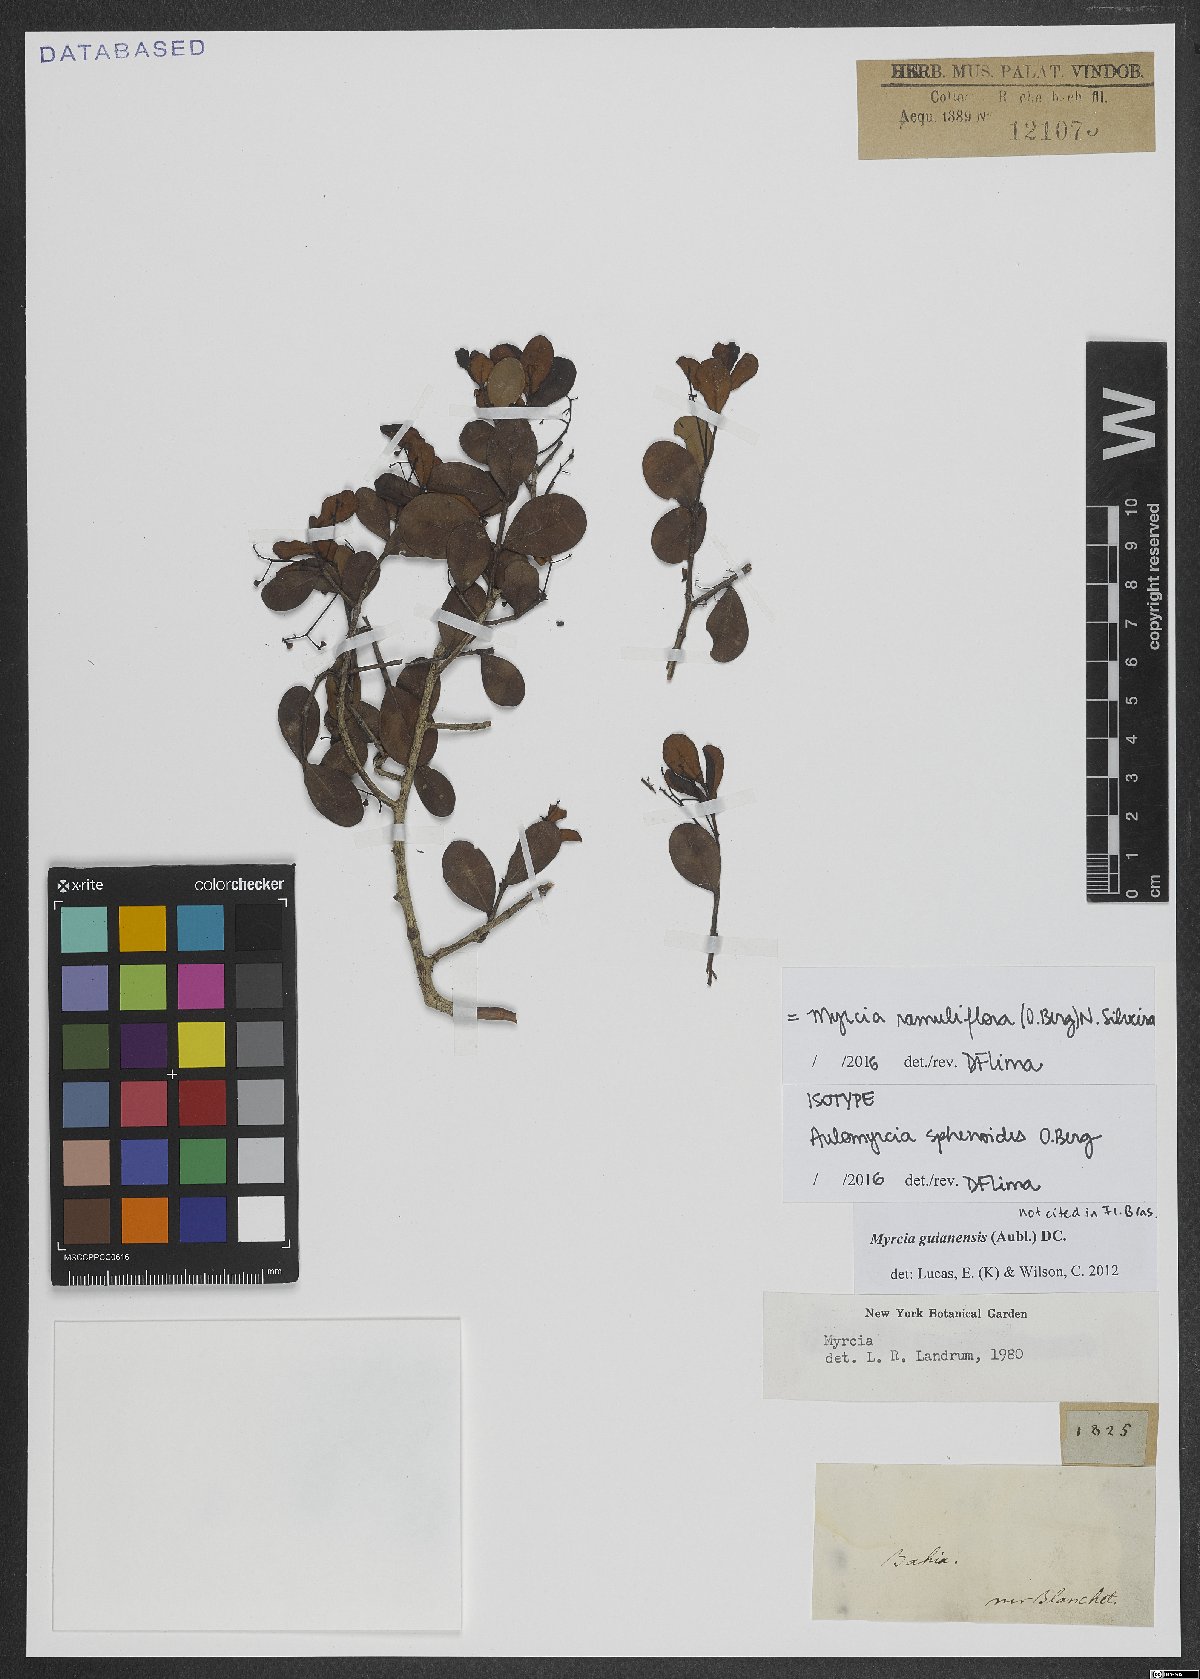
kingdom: Plantae
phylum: Tracheophyta
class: Magnoliopsida
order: Myrtales
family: Myrtaceae
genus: Myrcia
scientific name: Myrcia ramuliflora
